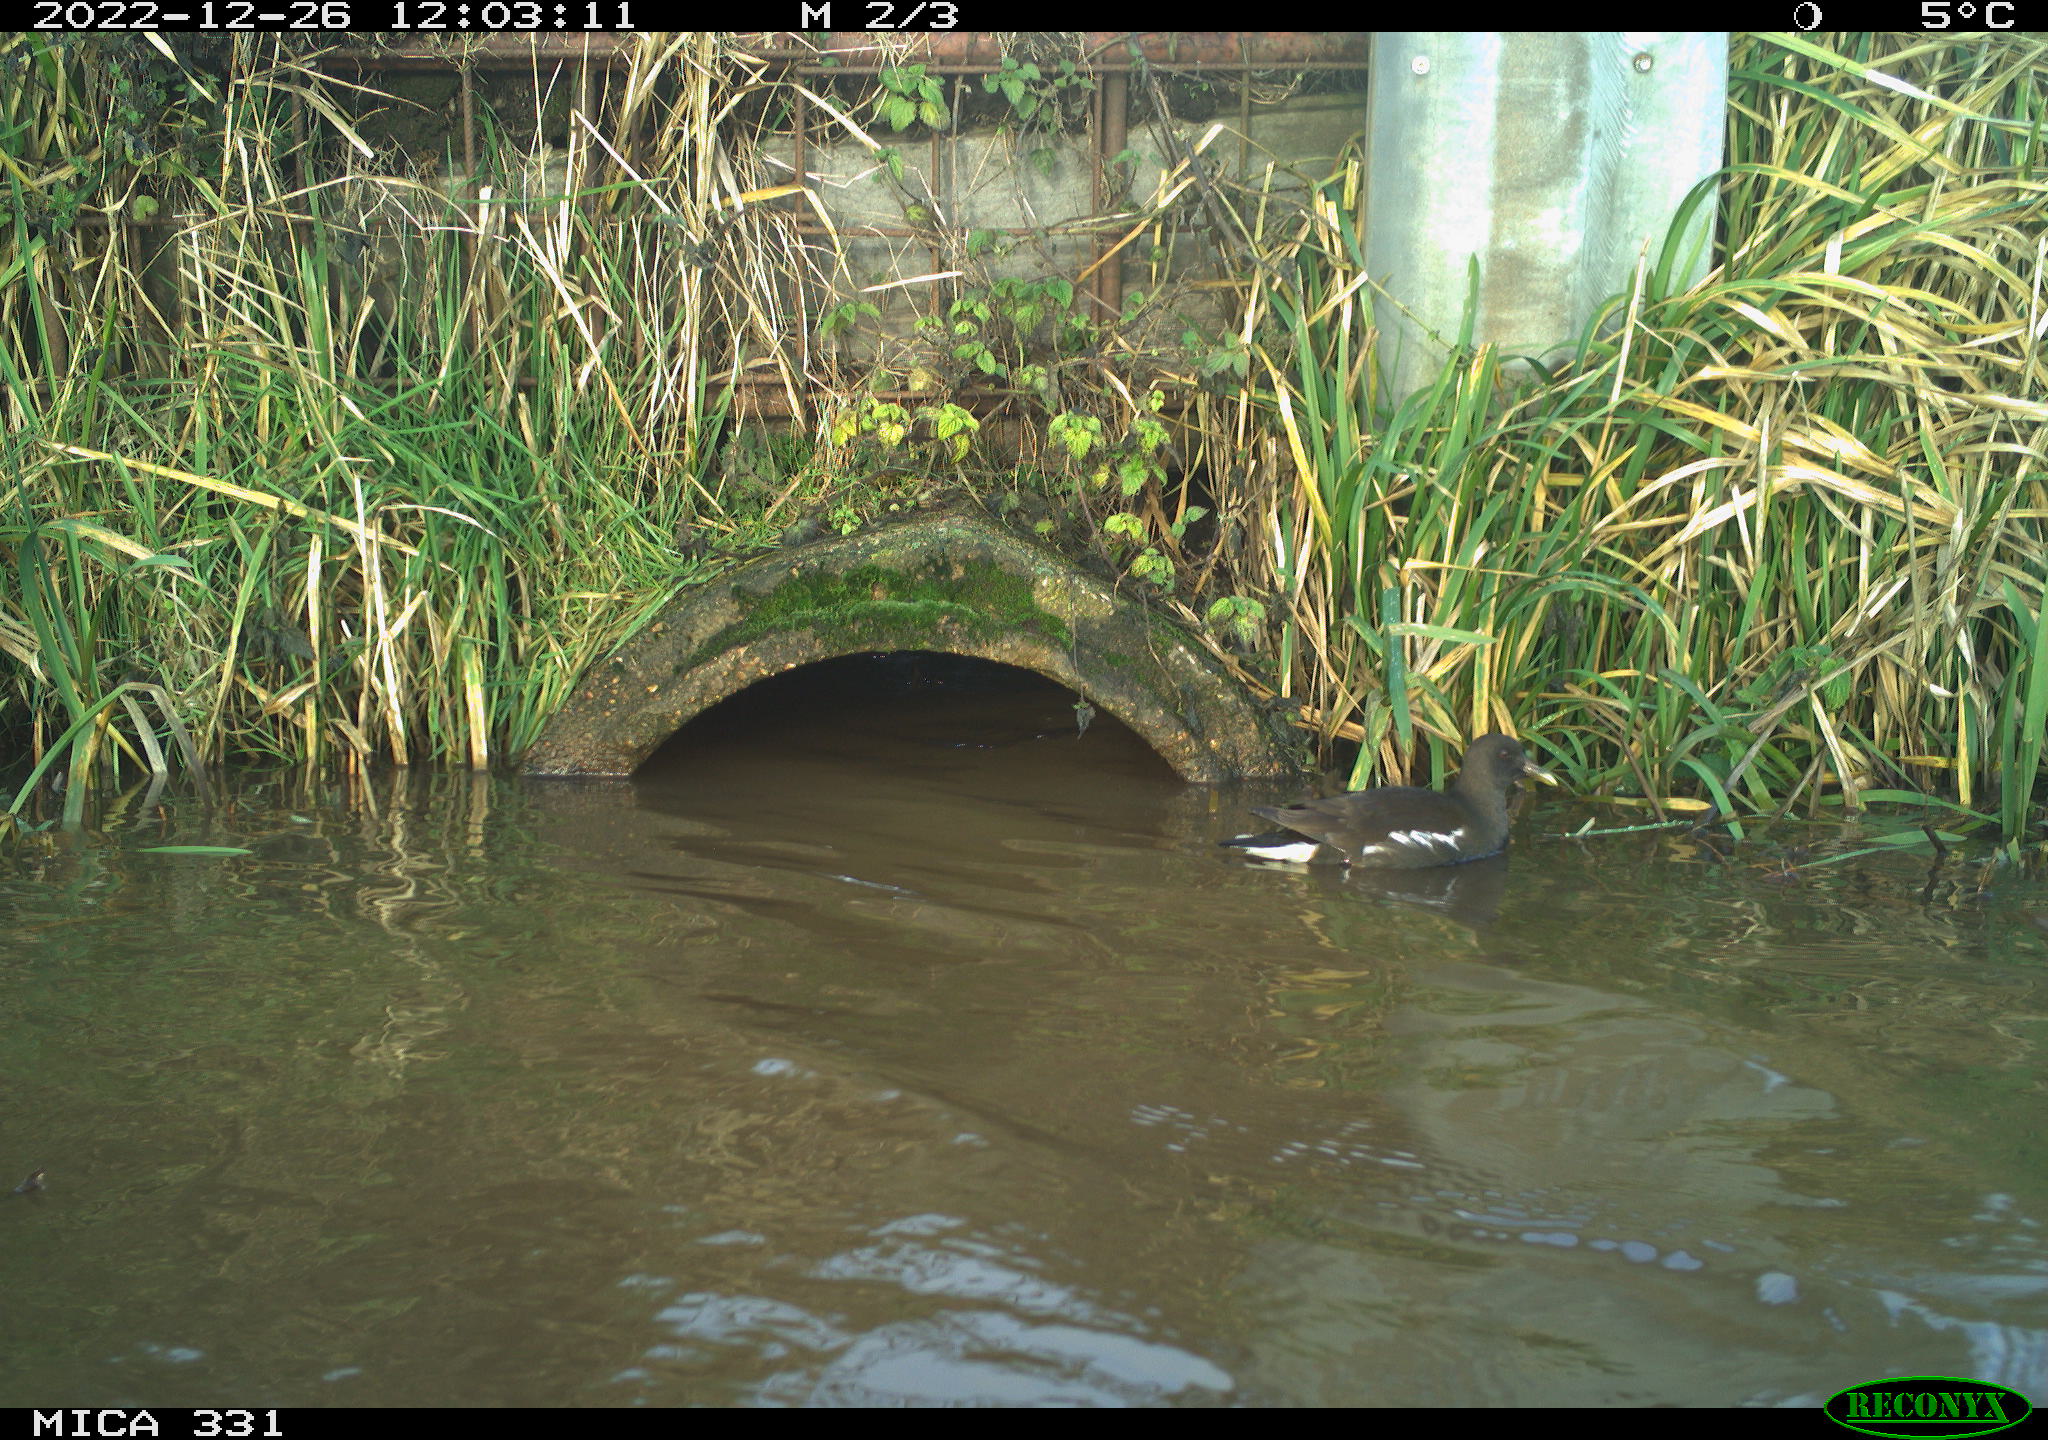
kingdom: Animalia
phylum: Chordata
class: Aves
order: Gruiformes
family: Rallidae
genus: Gallinula
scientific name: Gallinula chloropus
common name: Common moorhen
